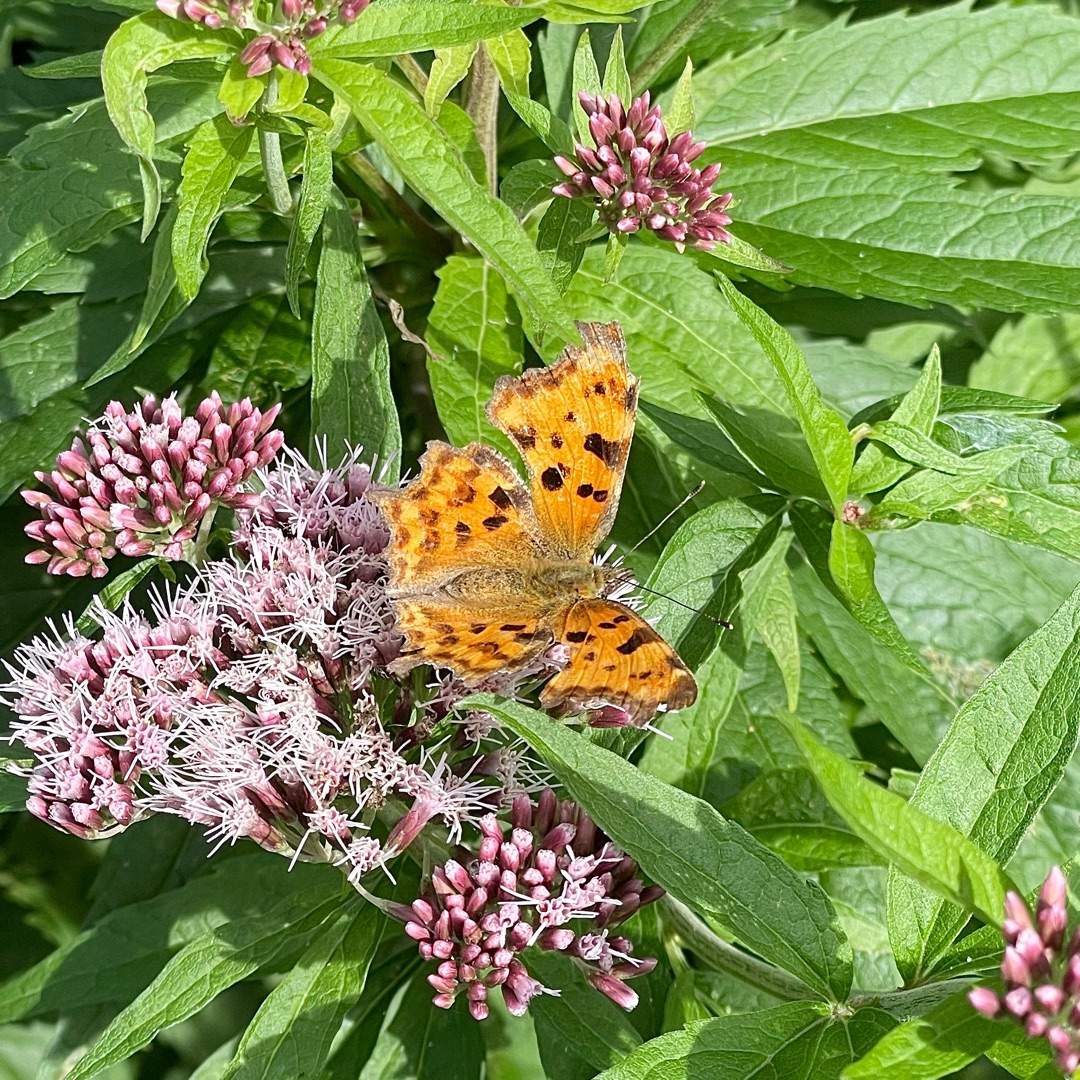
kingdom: Animalia
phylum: Arthropoda
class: Insecta
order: Lepidoptera
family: Nymphalidae
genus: Polygonia
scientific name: Polygonia c-album
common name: Det hvide C
